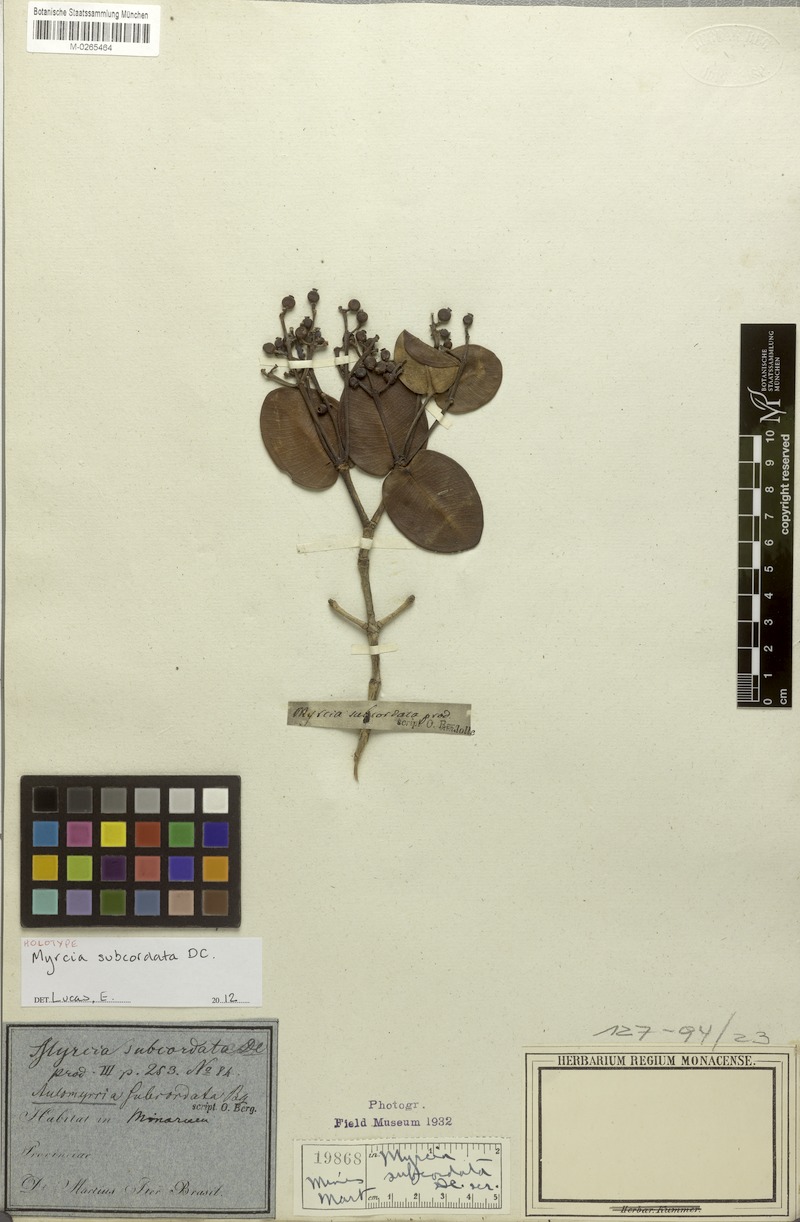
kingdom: Plantae
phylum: Tracheophyta
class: Magnoliopsida
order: Myrtales
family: Myrtaceae
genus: Myrcia
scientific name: Myrcia subcordata
